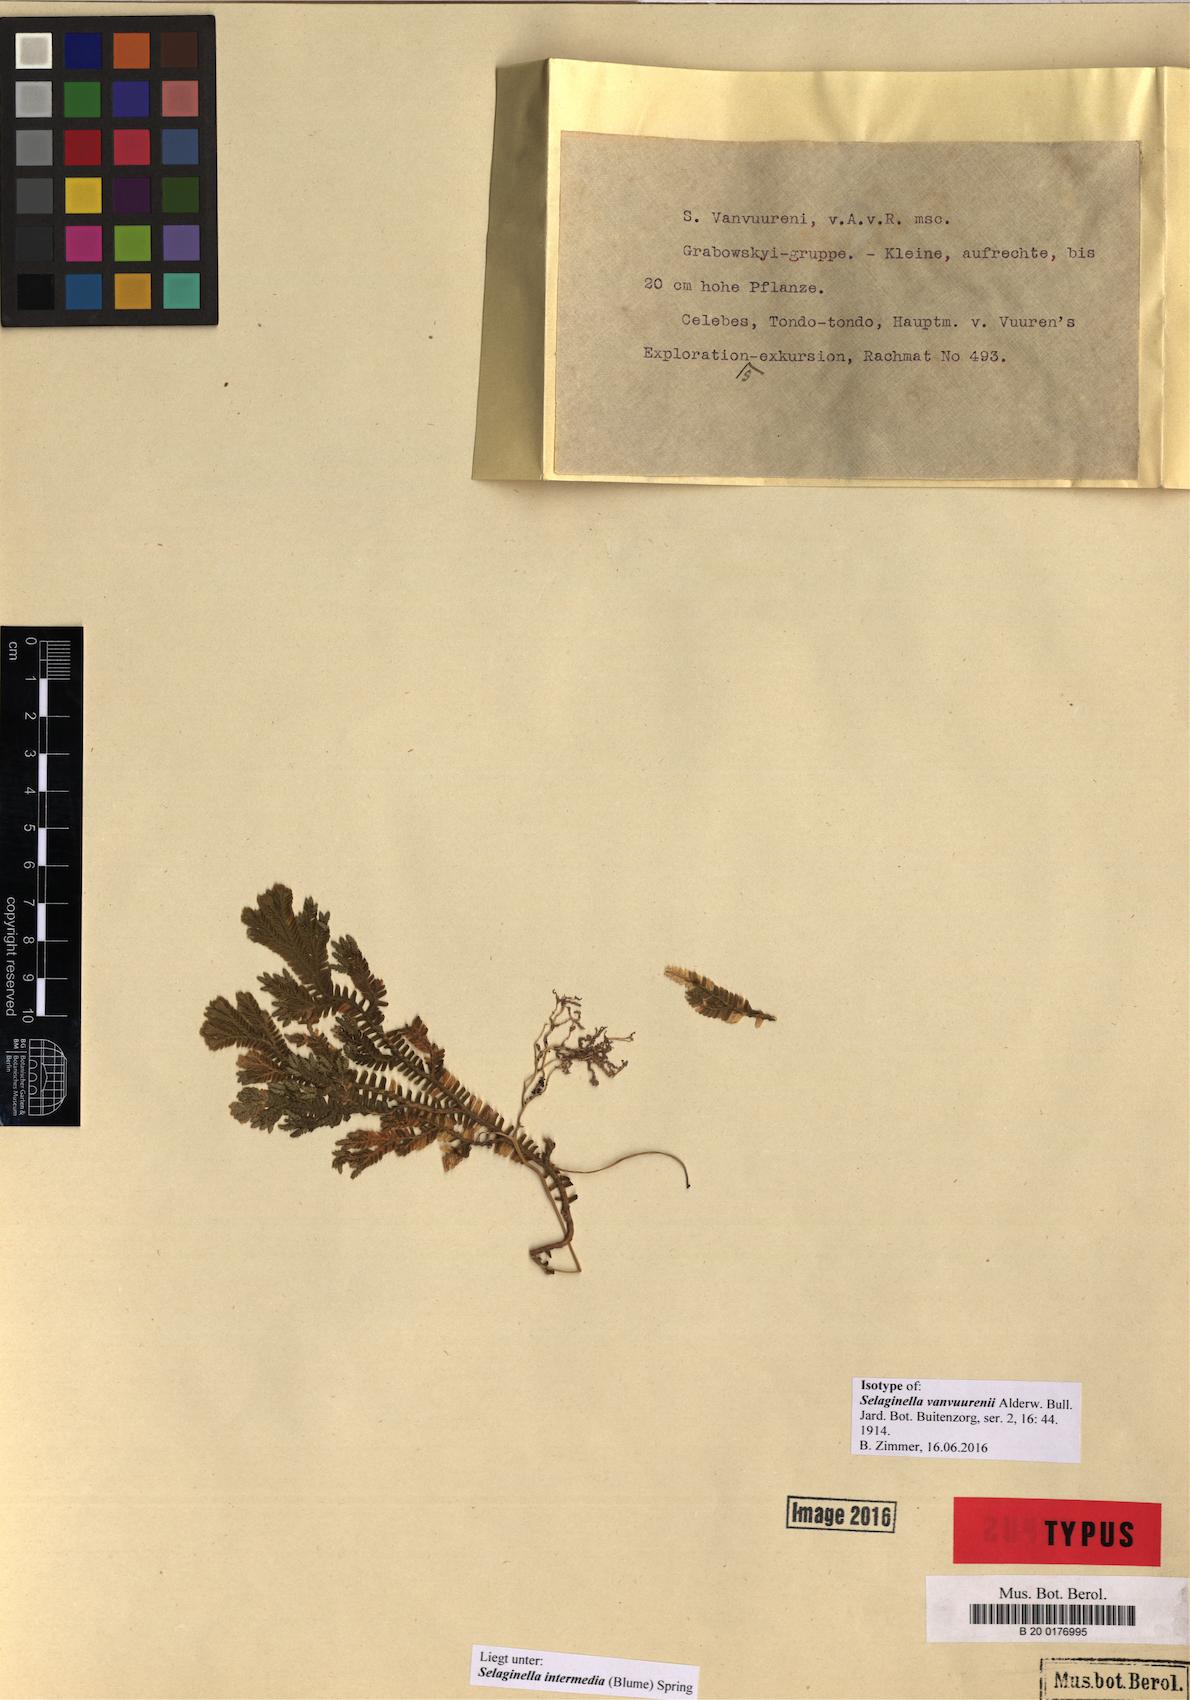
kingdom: Plantae
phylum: Tracheophyta
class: Lycopodiopsida
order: Selaginellales
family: Selaginellaceae
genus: Selaginella
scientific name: Selaginella intermedia
